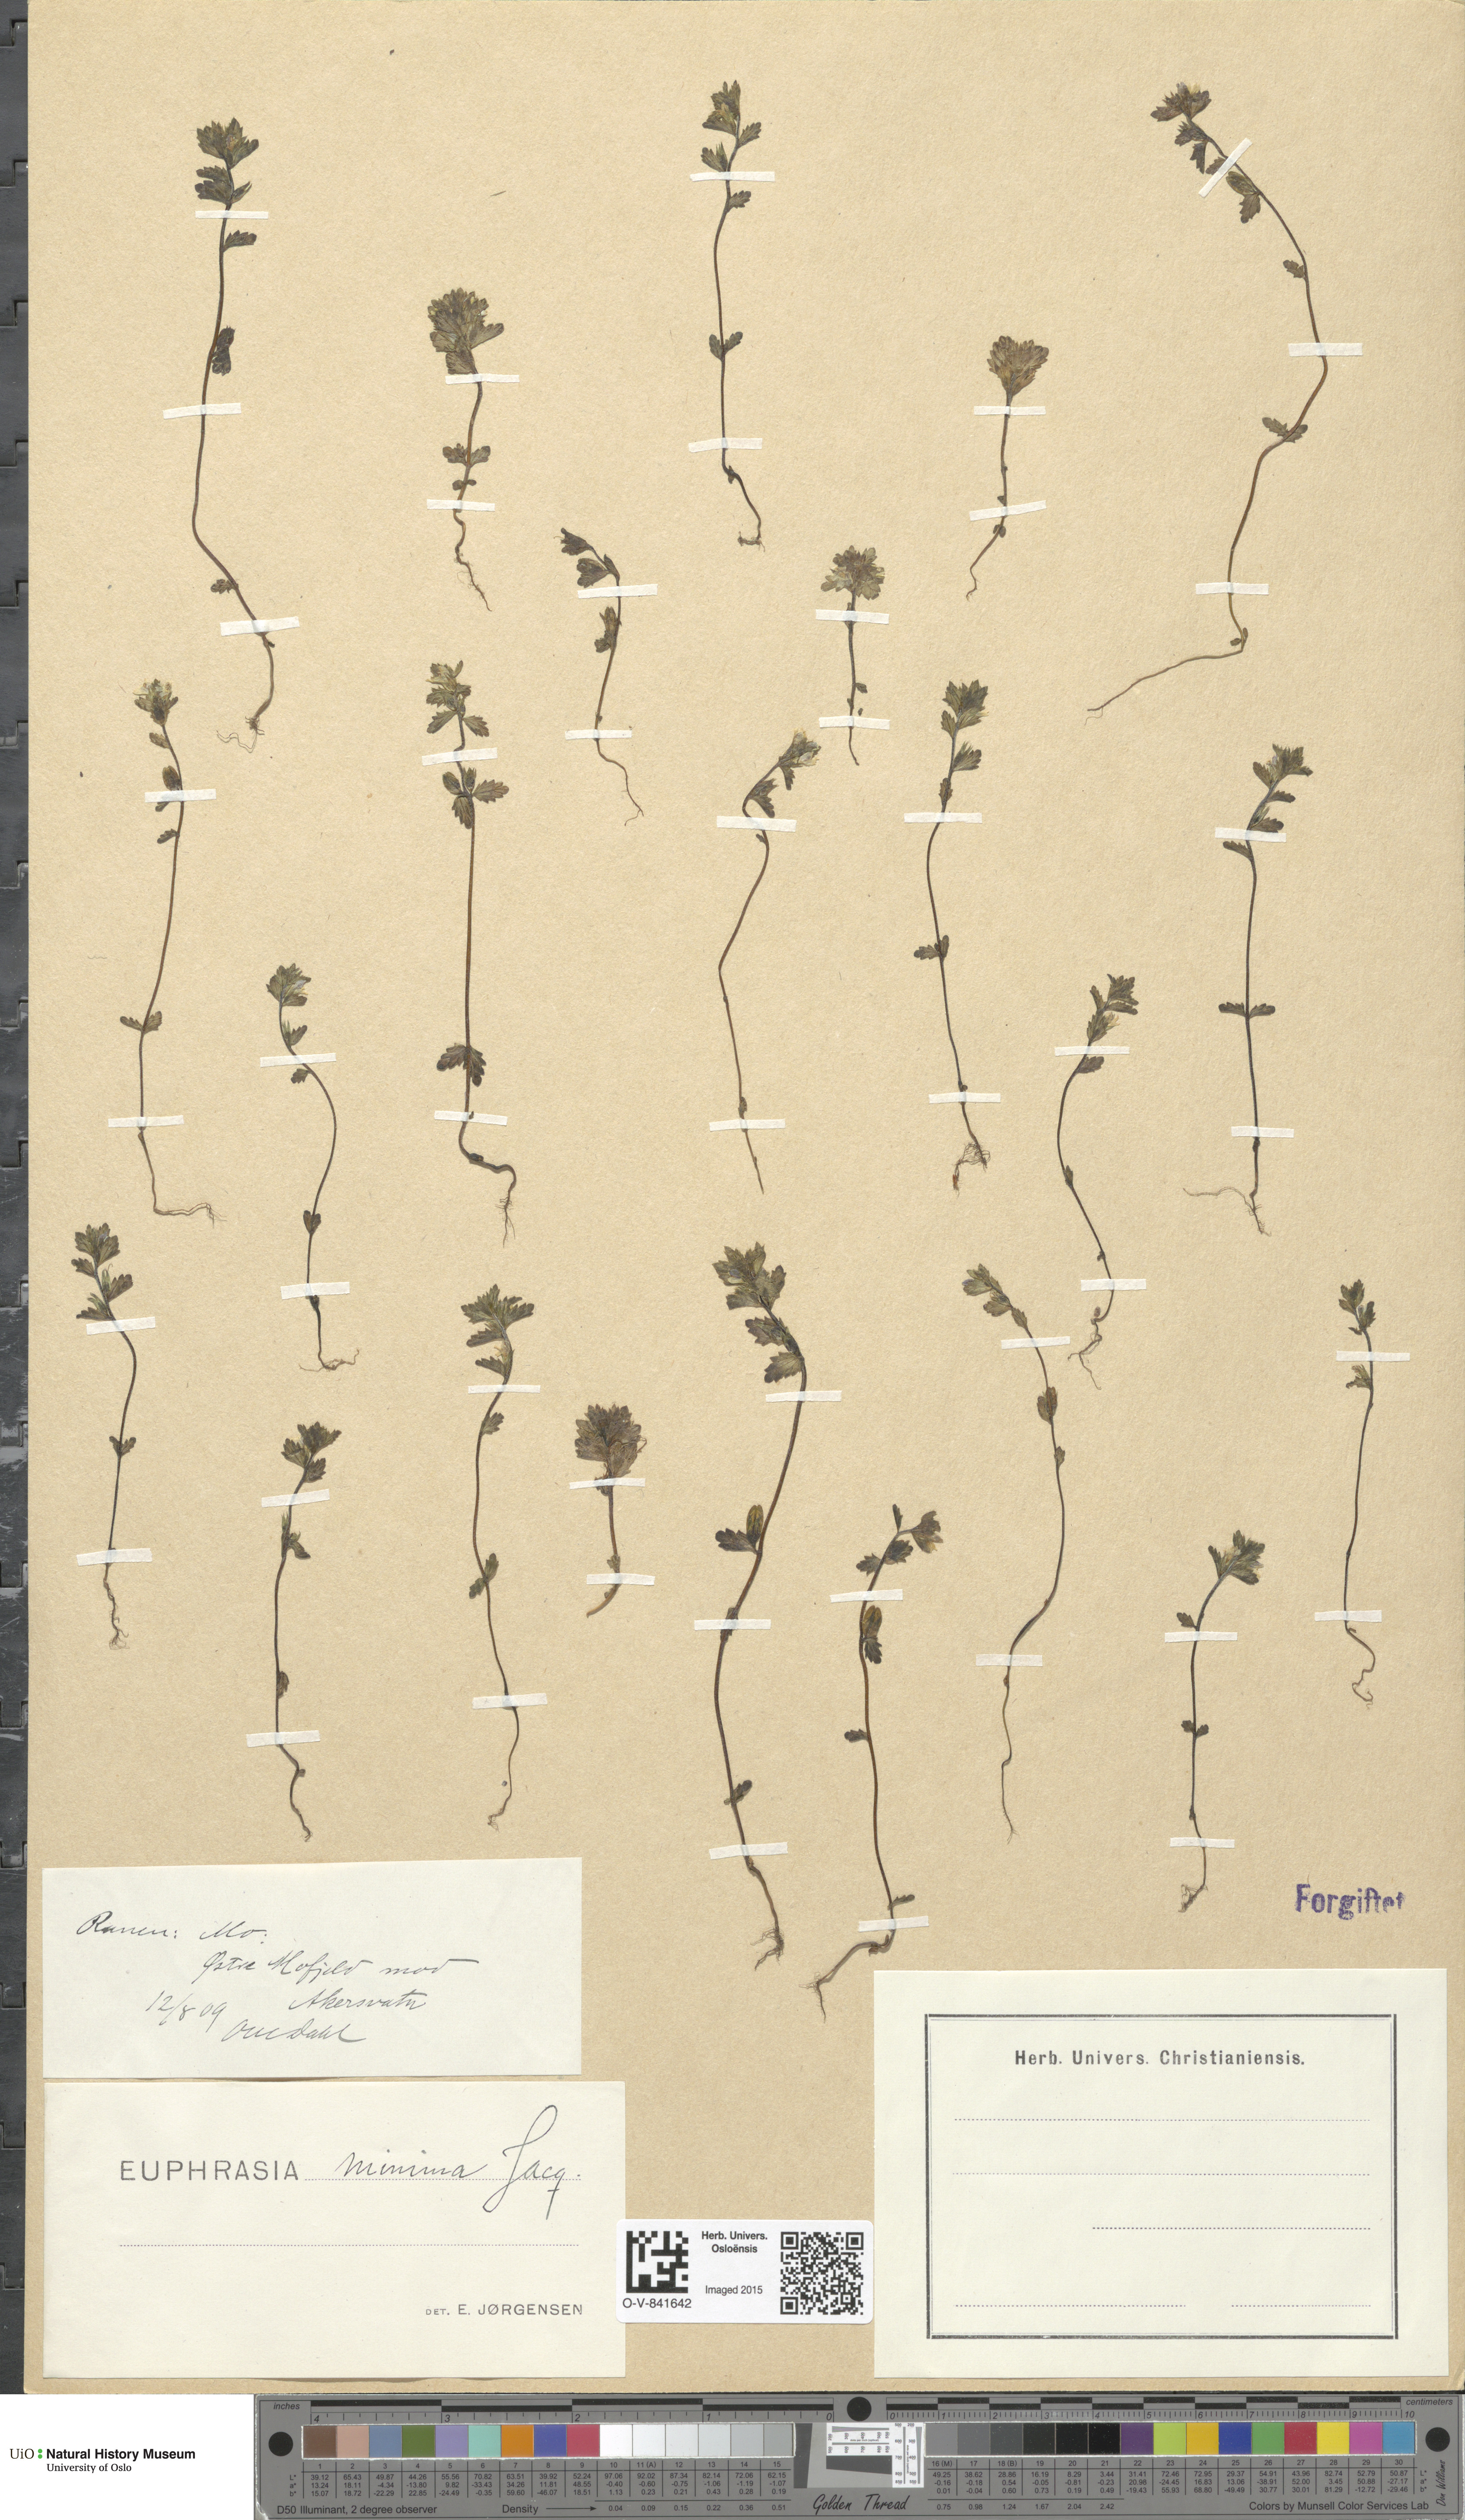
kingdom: Plantae
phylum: Tracheophyta
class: Magnoliopsida
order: Lamiales
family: Orobanchaceae
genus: Euphrasia
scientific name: Euphrasia wettsteinii
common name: Wettstein's eyebright
